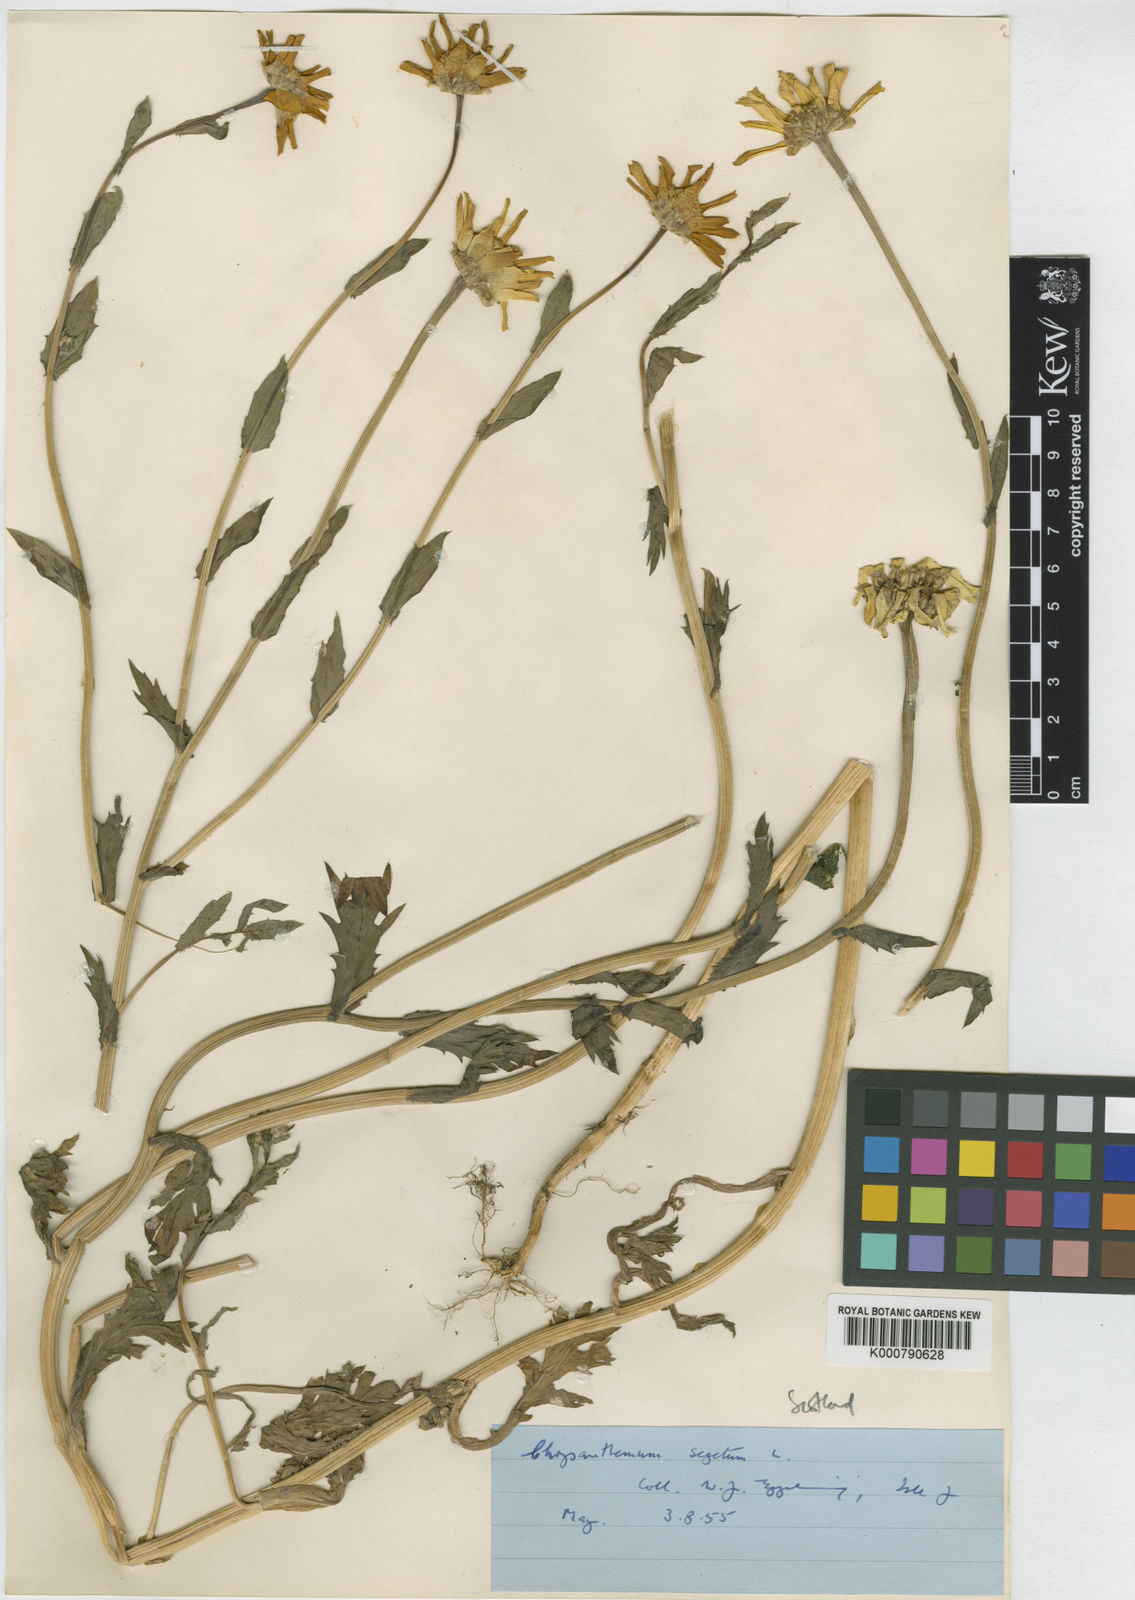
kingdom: Plantae
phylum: Tracheophyta
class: Magnoliopsida
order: Asterales
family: Asteraceae
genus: Glebionis
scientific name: Glebionis
